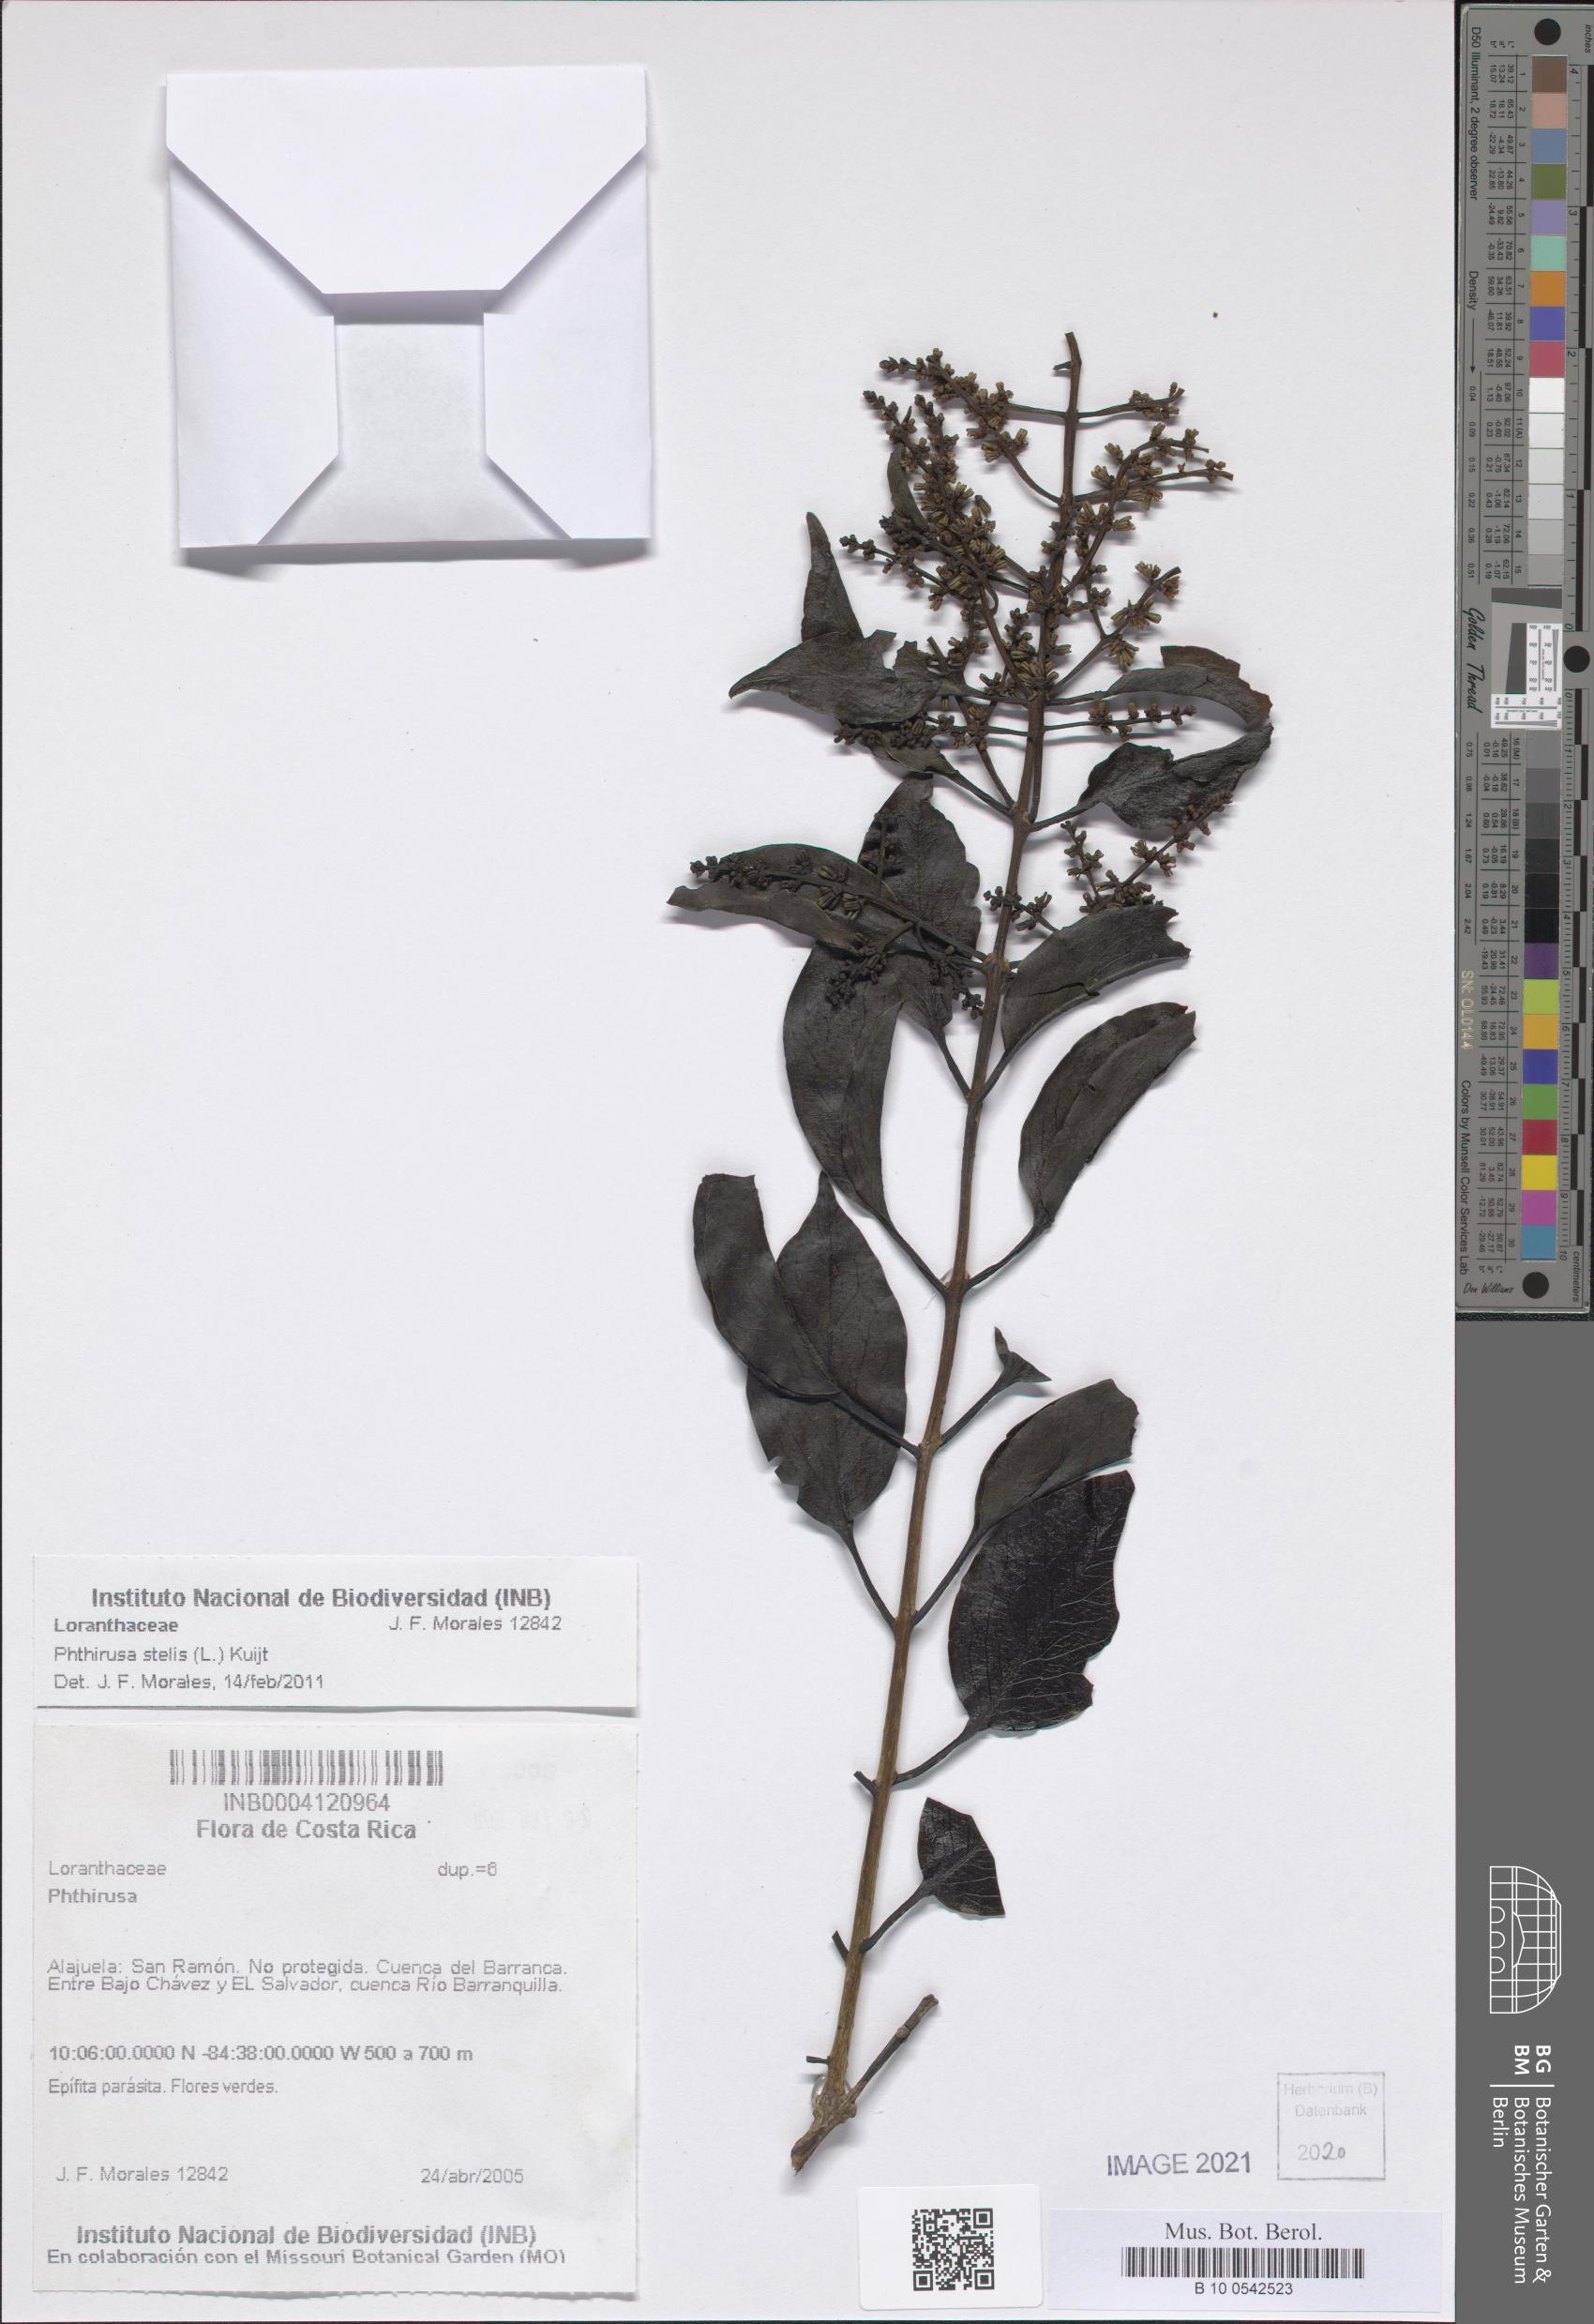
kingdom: Plantae
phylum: Tracheophyta
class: Magnoliopsida
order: Santalales
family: Loranthaceae
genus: Passovia
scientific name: Passovia pedunculata
